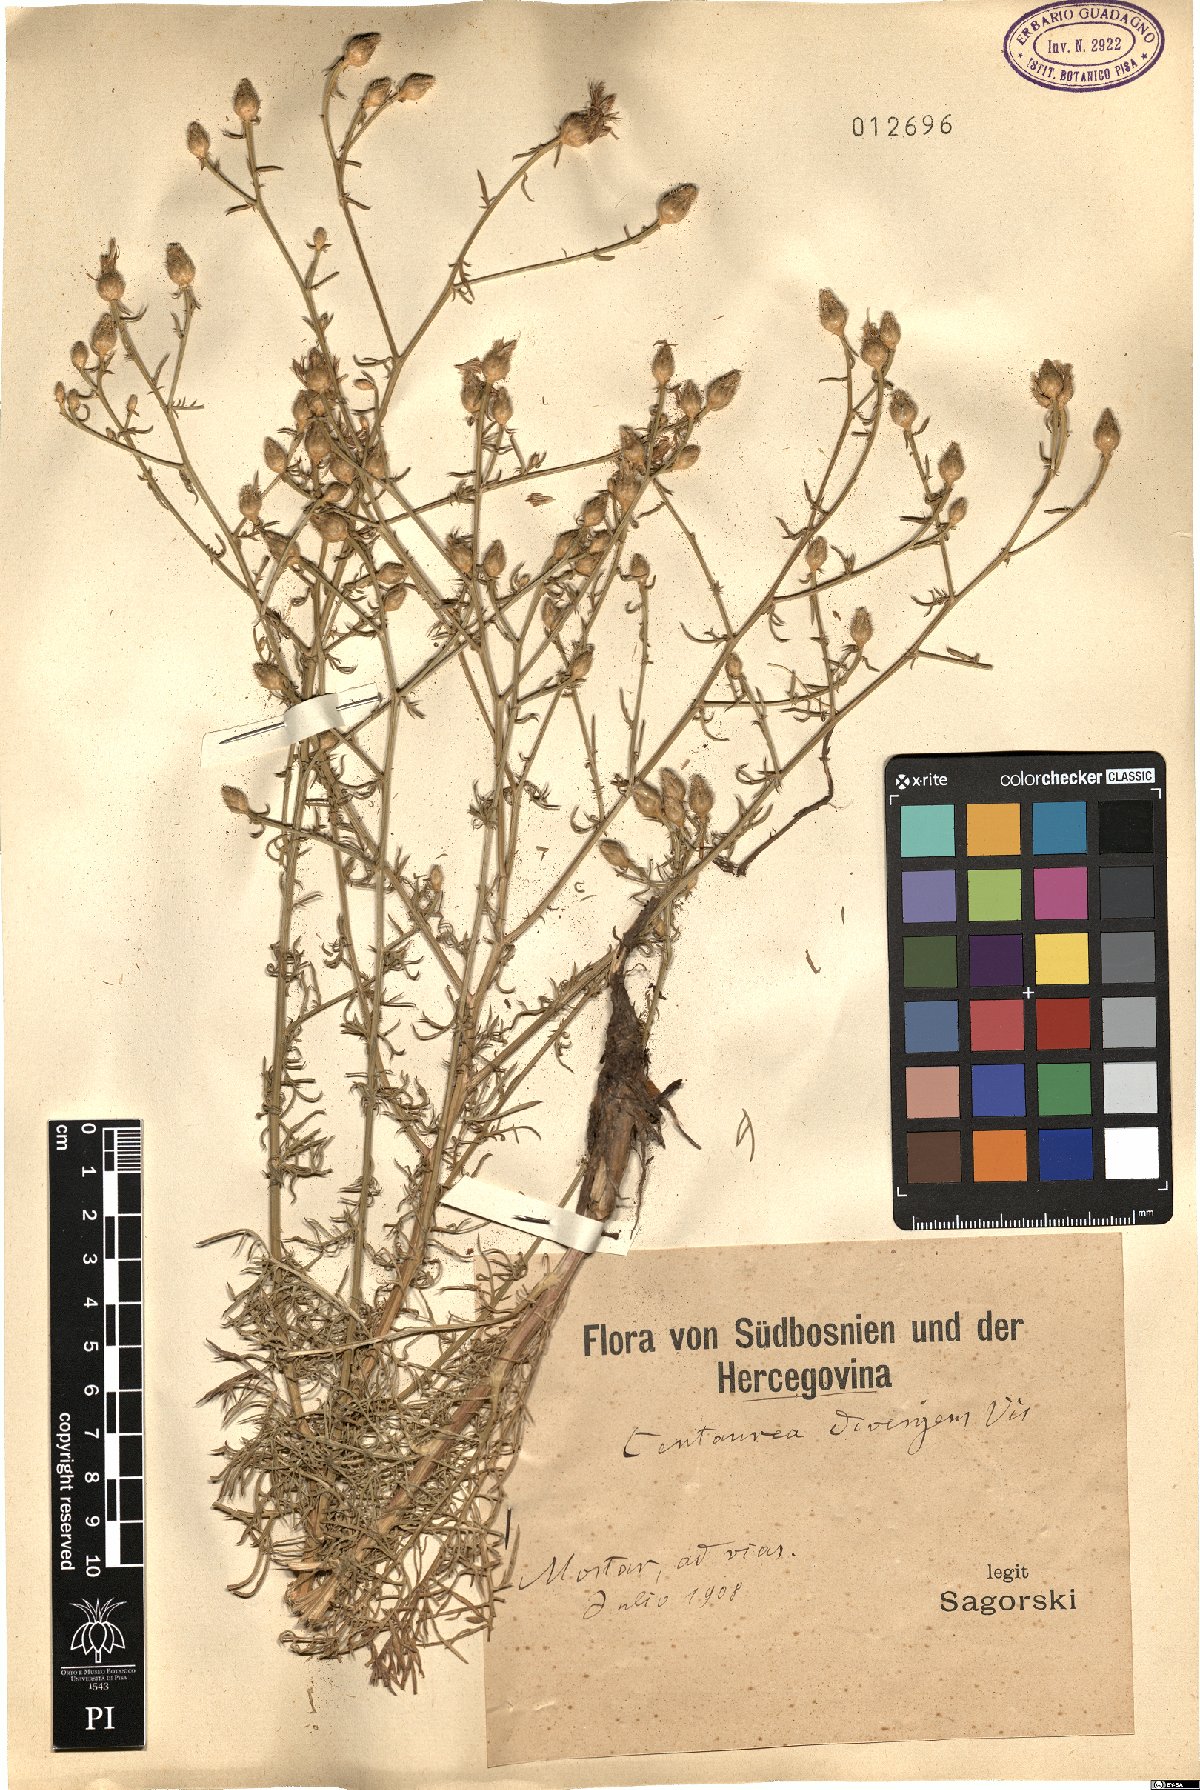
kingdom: Plantae
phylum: Tracheophyta
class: Magnoliopsida
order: Asterales
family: Asteraceae
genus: Centaurea
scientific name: Centaurea glaberrima
